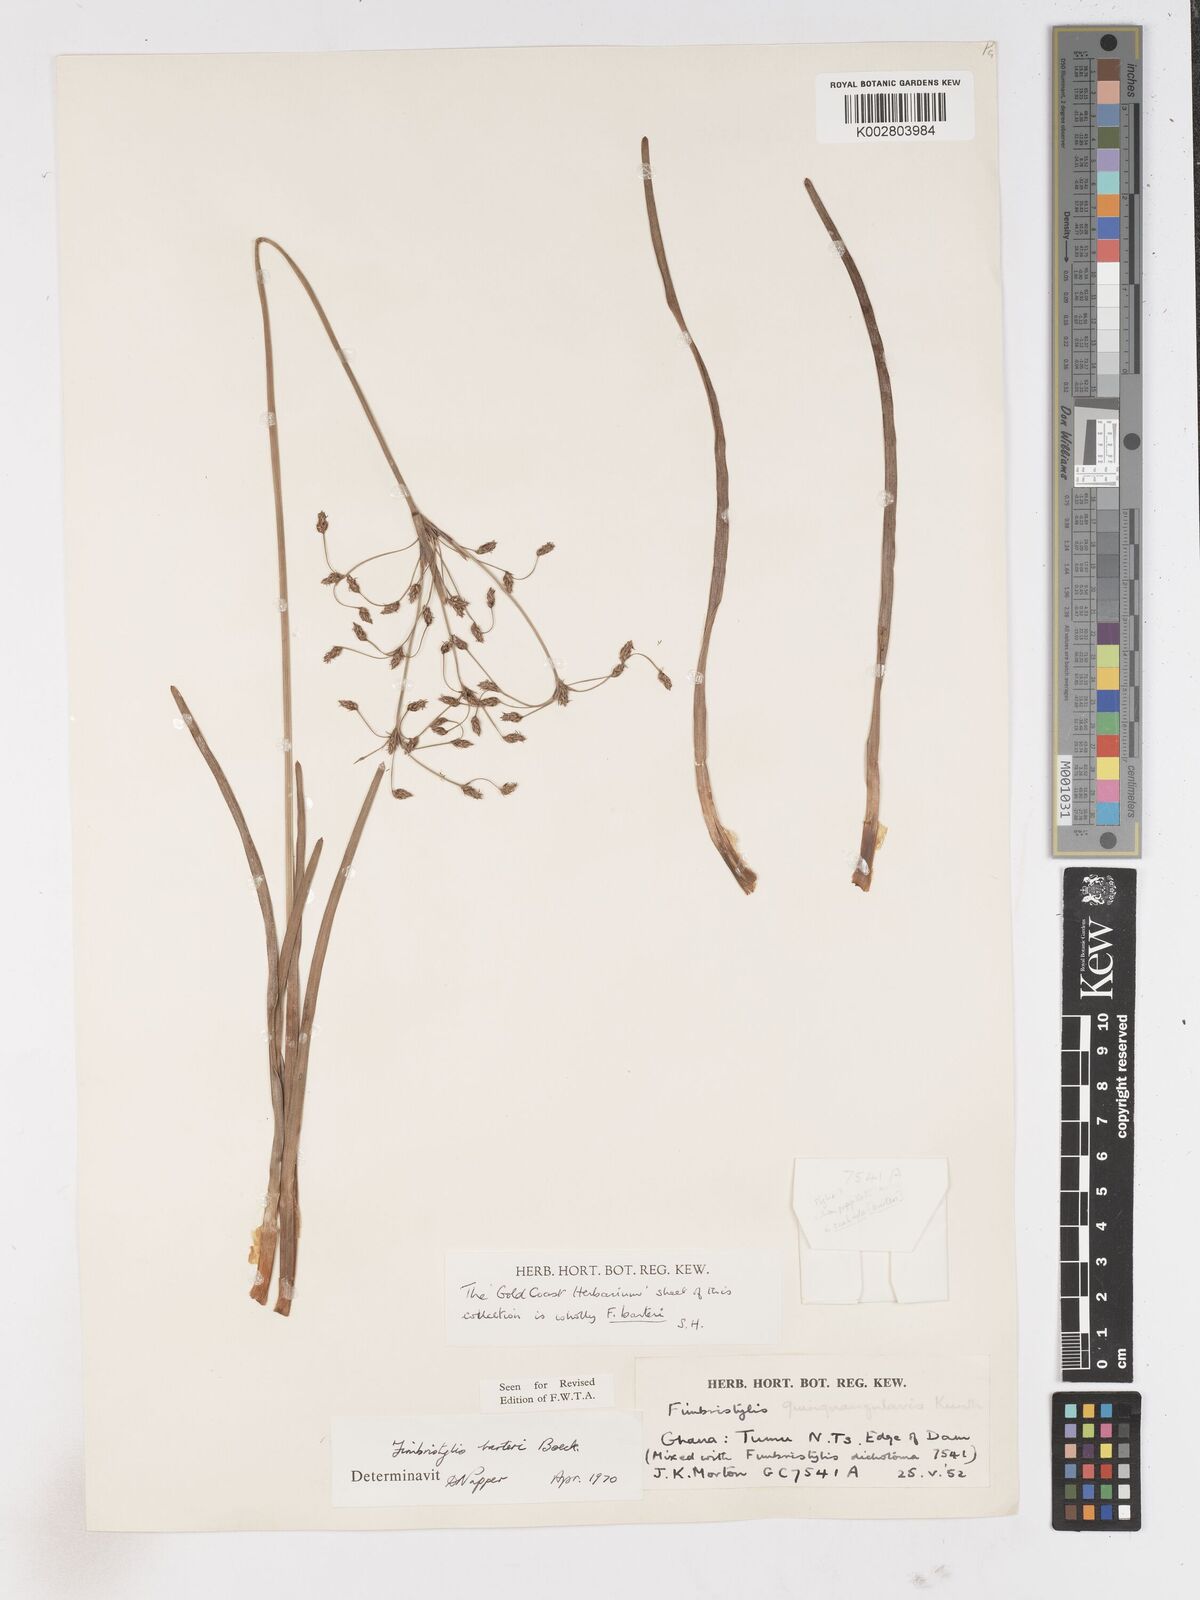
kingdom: Plantae
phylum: Tracheophyta
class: Liliopsida
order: Poales
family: Cyperaceae
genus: Fimbristylis
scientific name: Fimbristylis barteri
